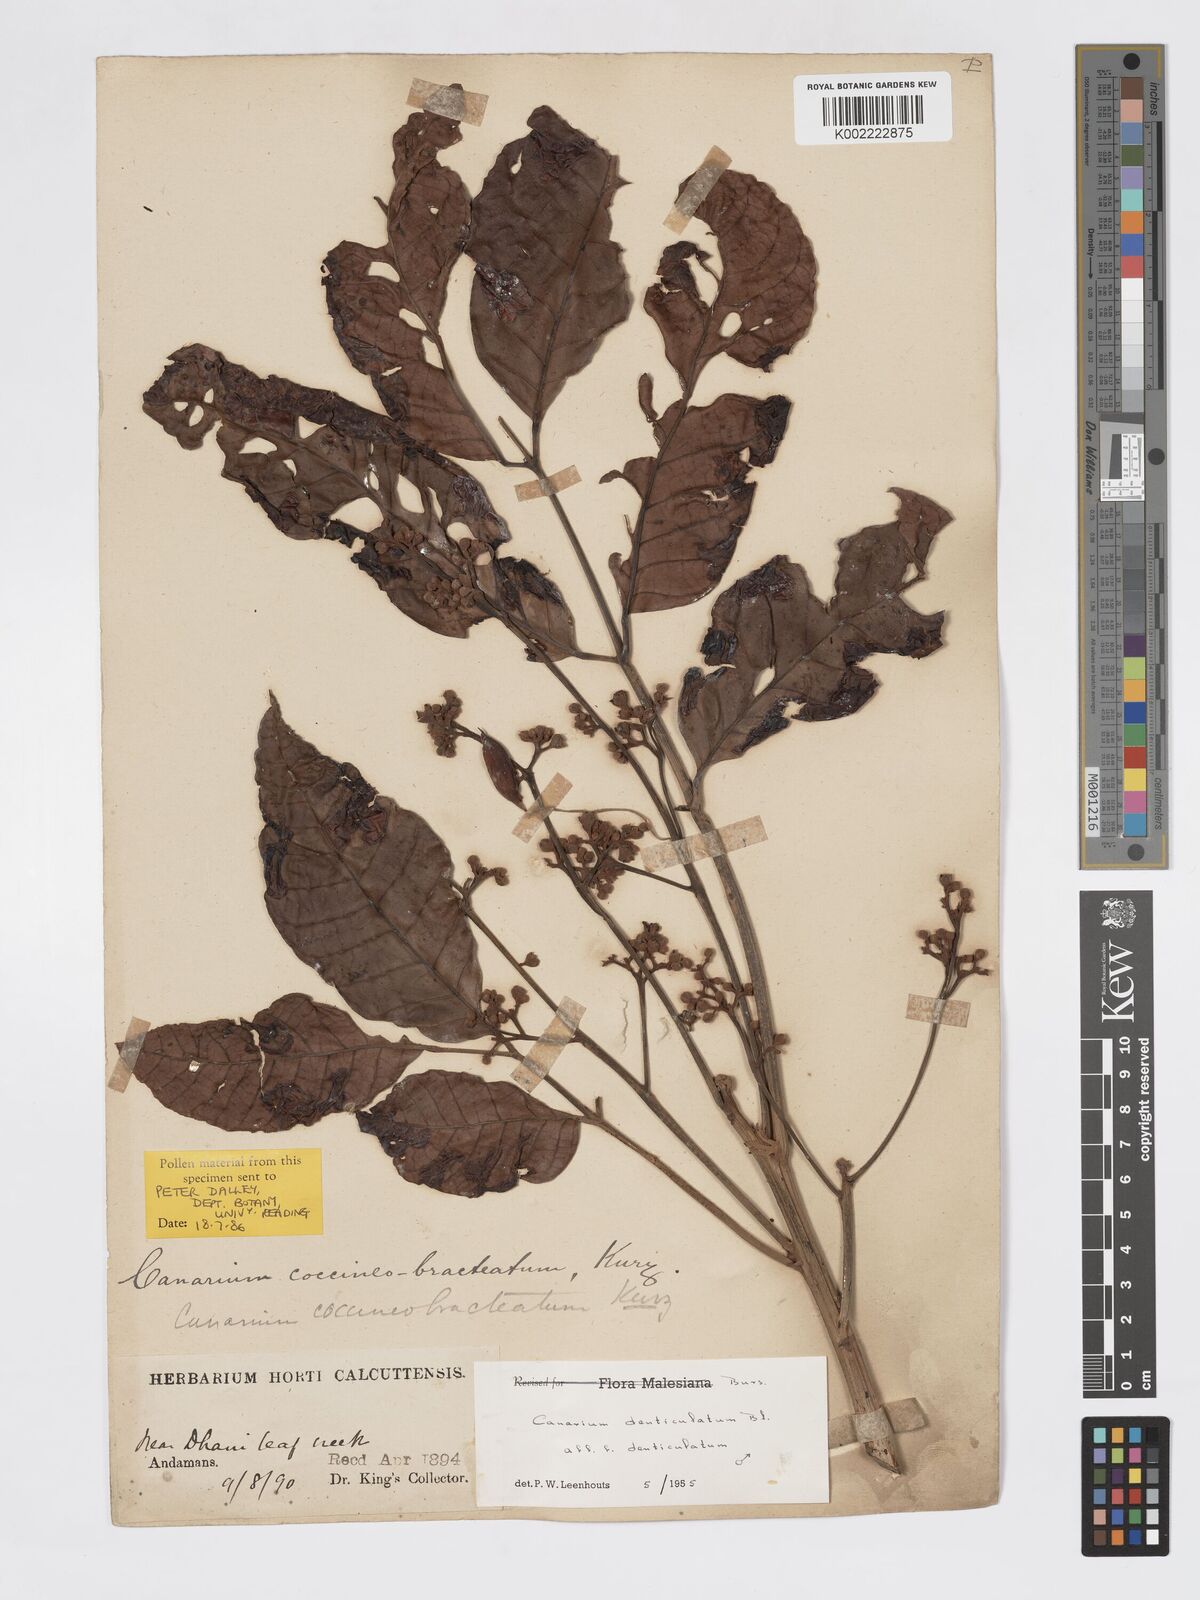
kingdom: Plantae
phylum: Tracheophyta
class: Magnoliopsida
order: Sapindales
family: Burseraceae
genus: Canarium
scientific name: Canarium denticulatum
